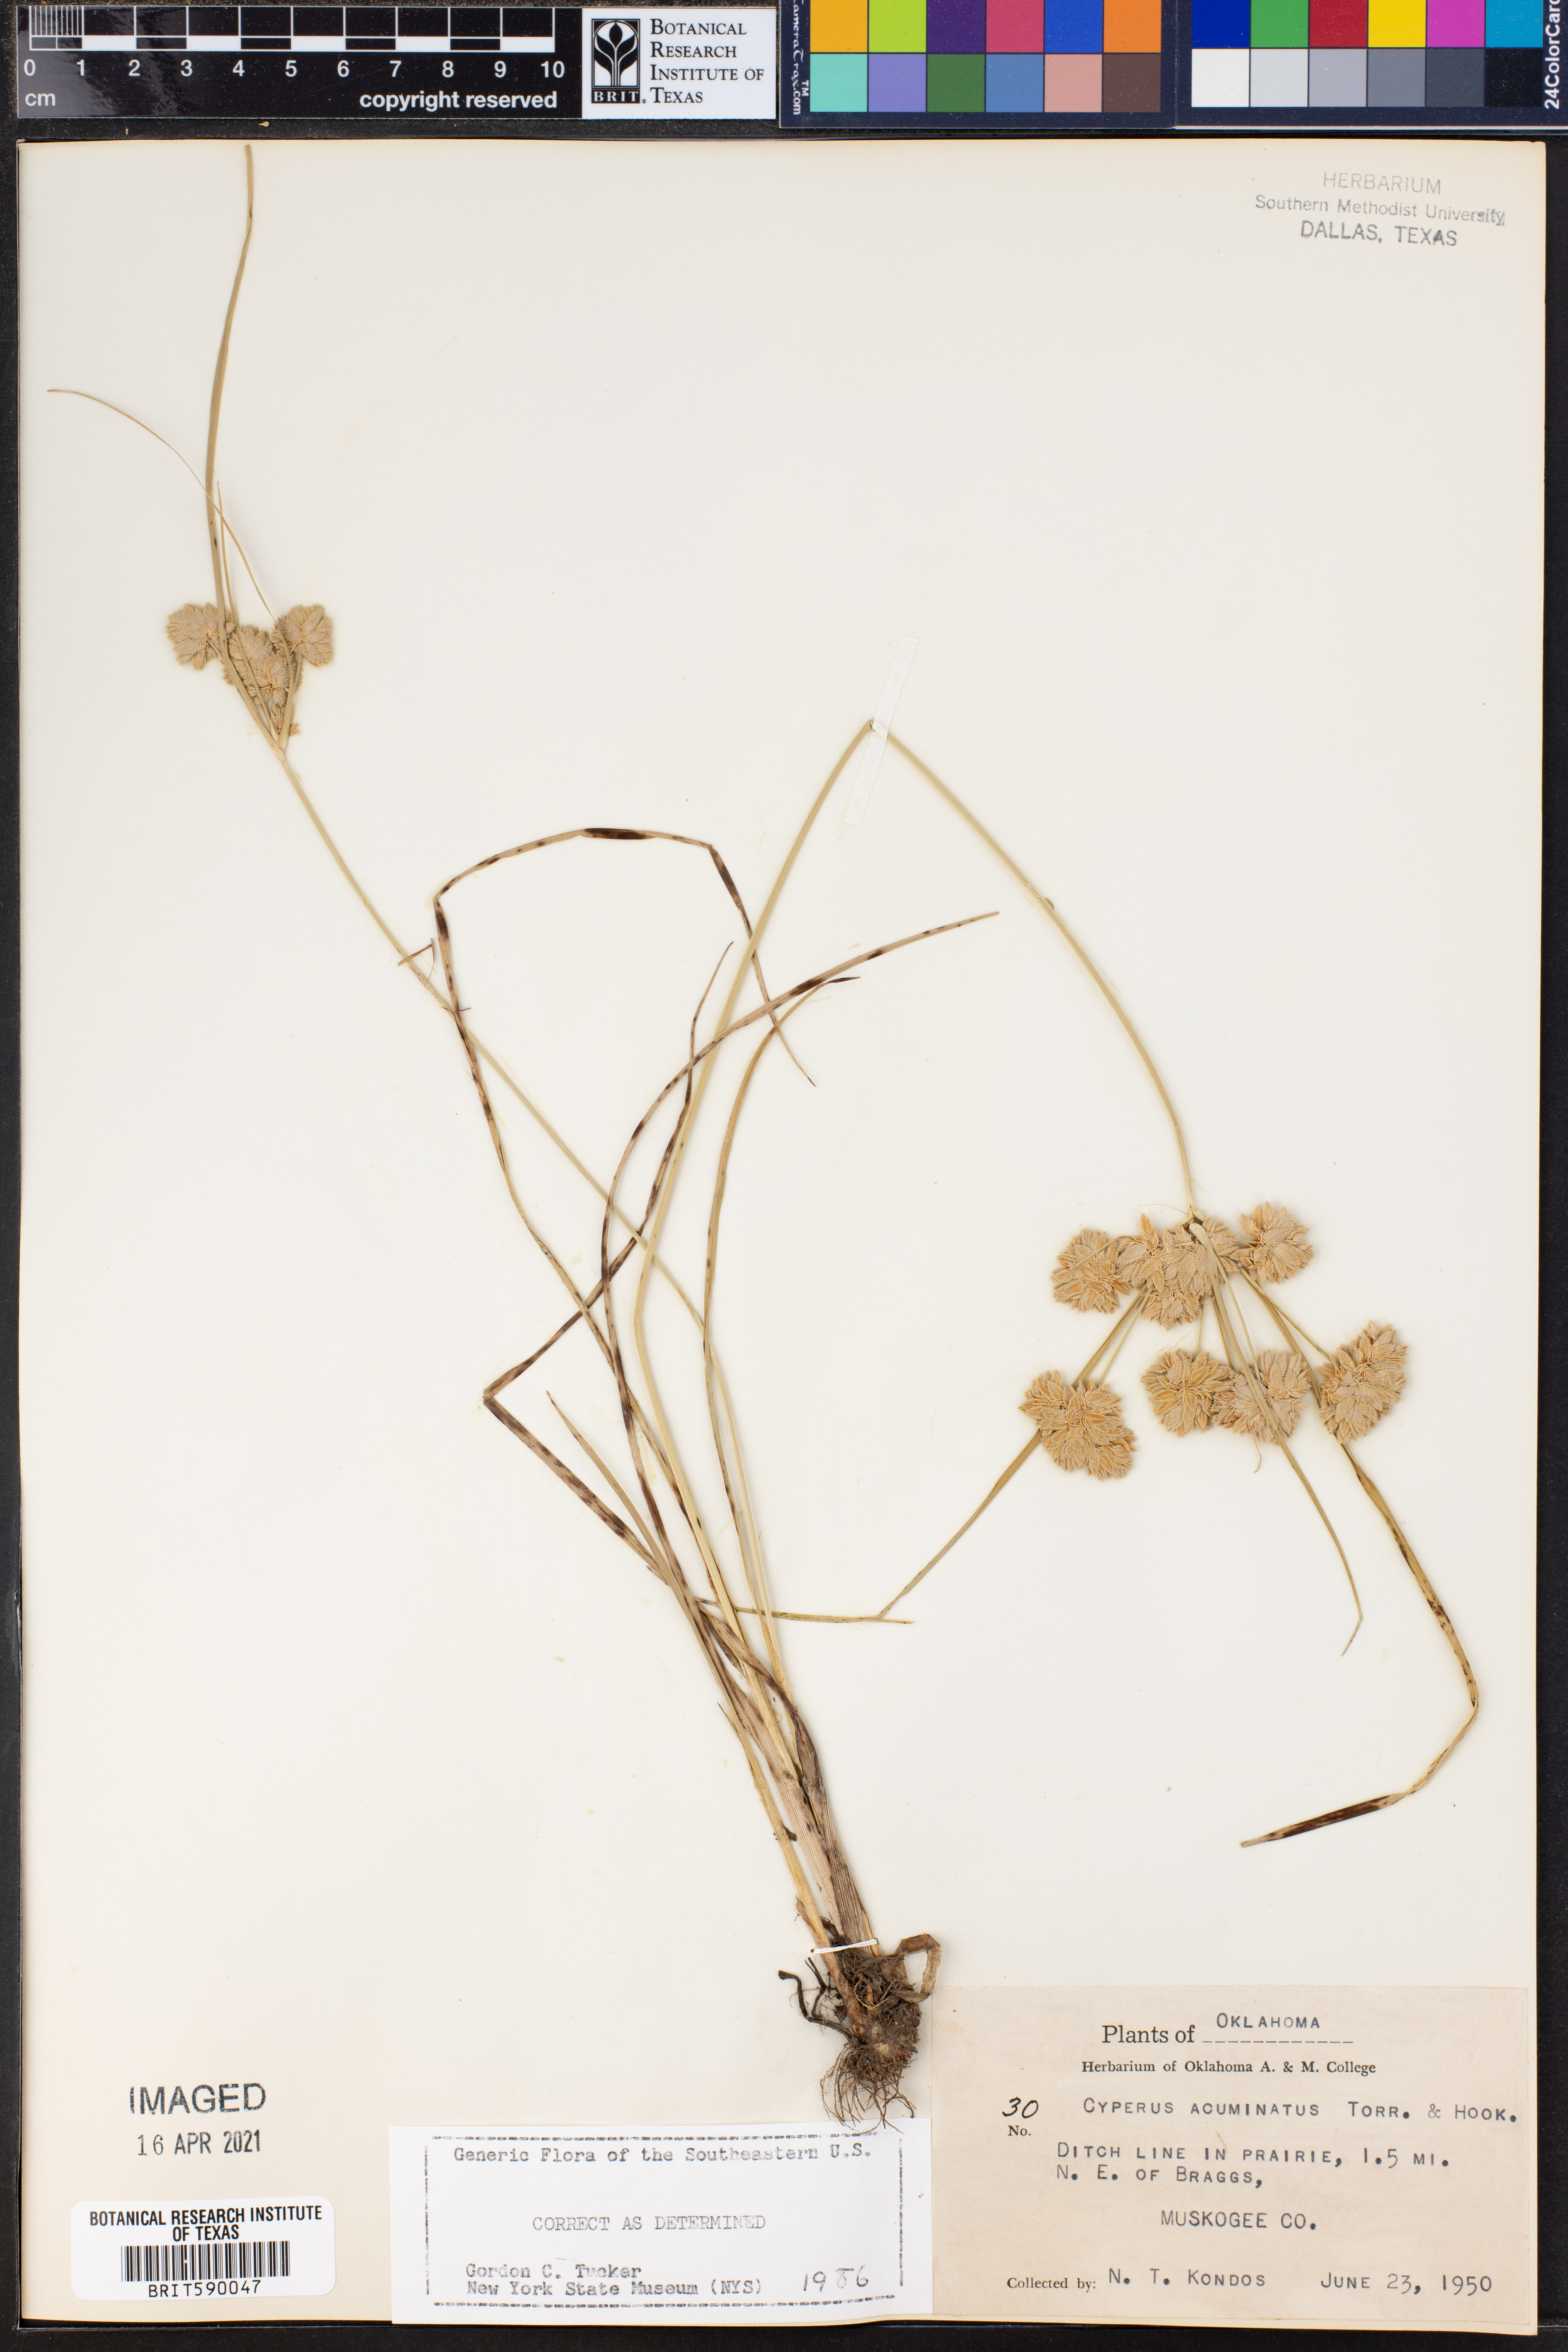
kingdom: Plantae
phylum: Tracheophyta
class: Liliopsida
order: Poales
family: Cyperaceae
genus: Cyperus
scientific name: Cyperus acuminatus
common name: Short-pointed cyperus
